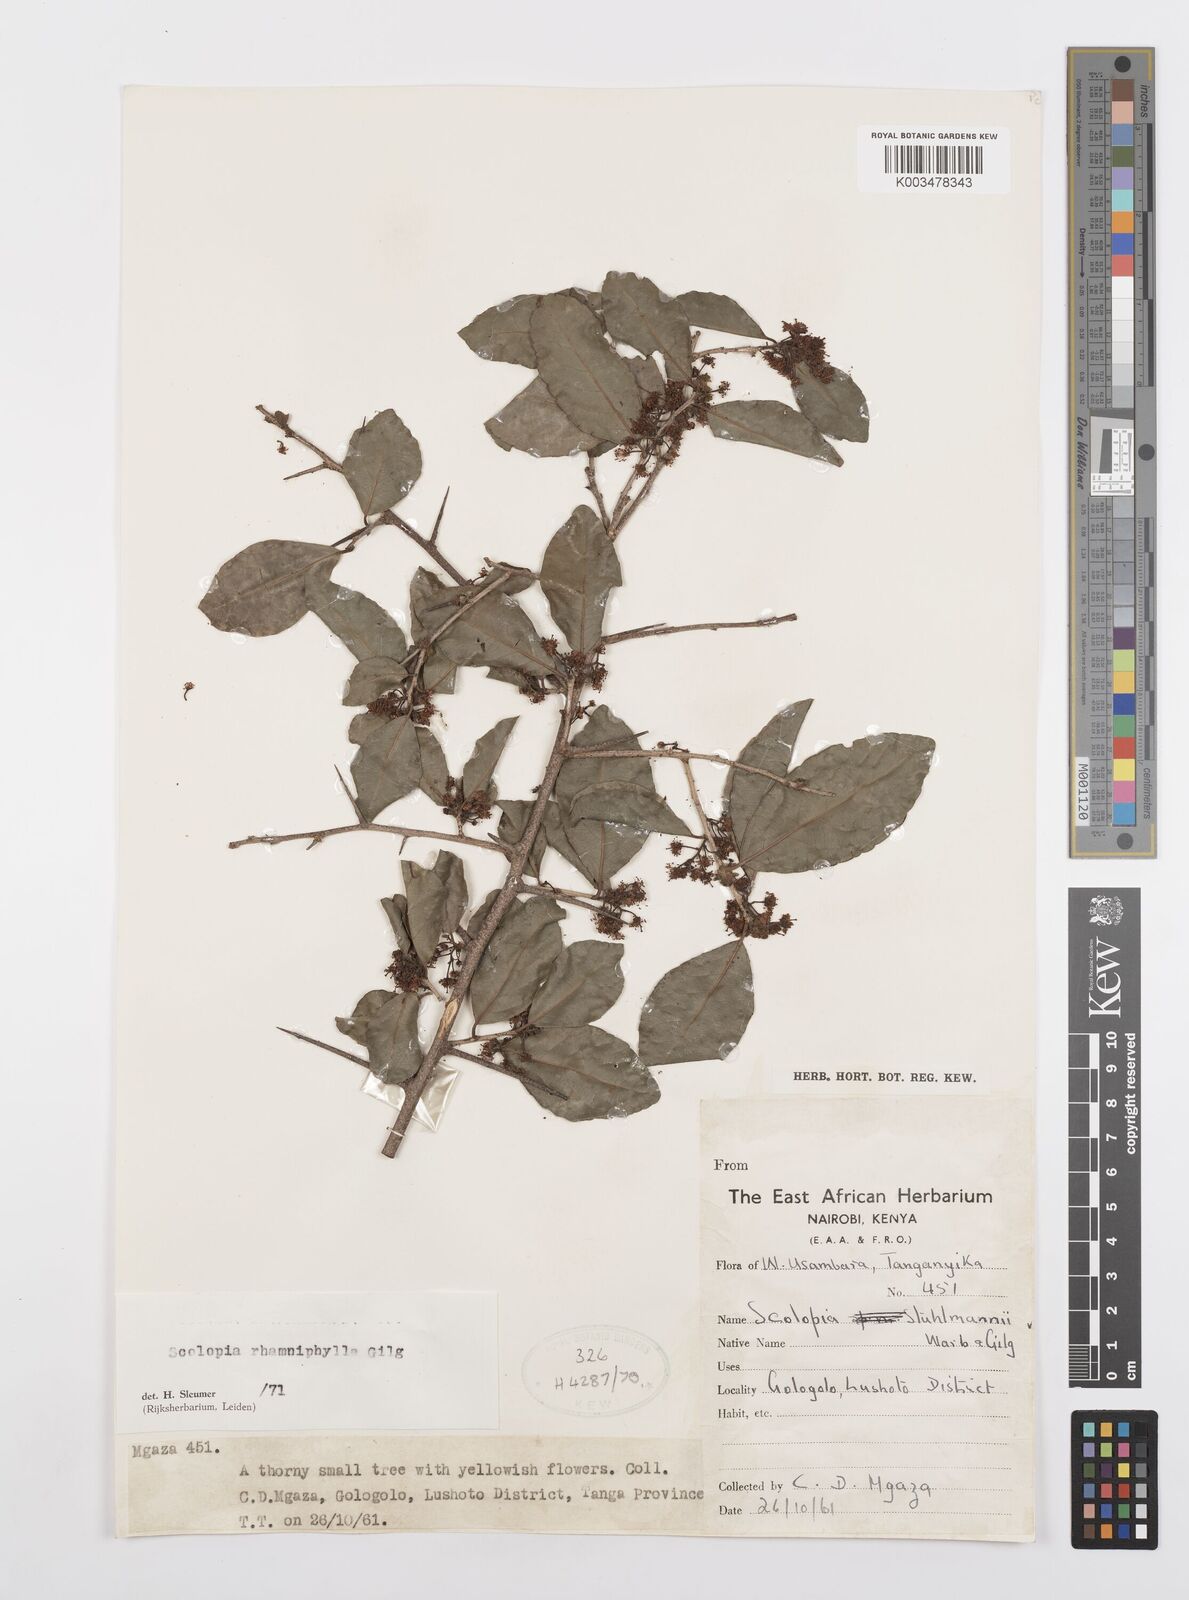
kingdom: Plantae
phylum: Tracheophyta
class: Magnoliopsida
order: Malpighiales
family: Salicaceae
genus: Scolopia
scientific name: Scolopia rhamniphylla
